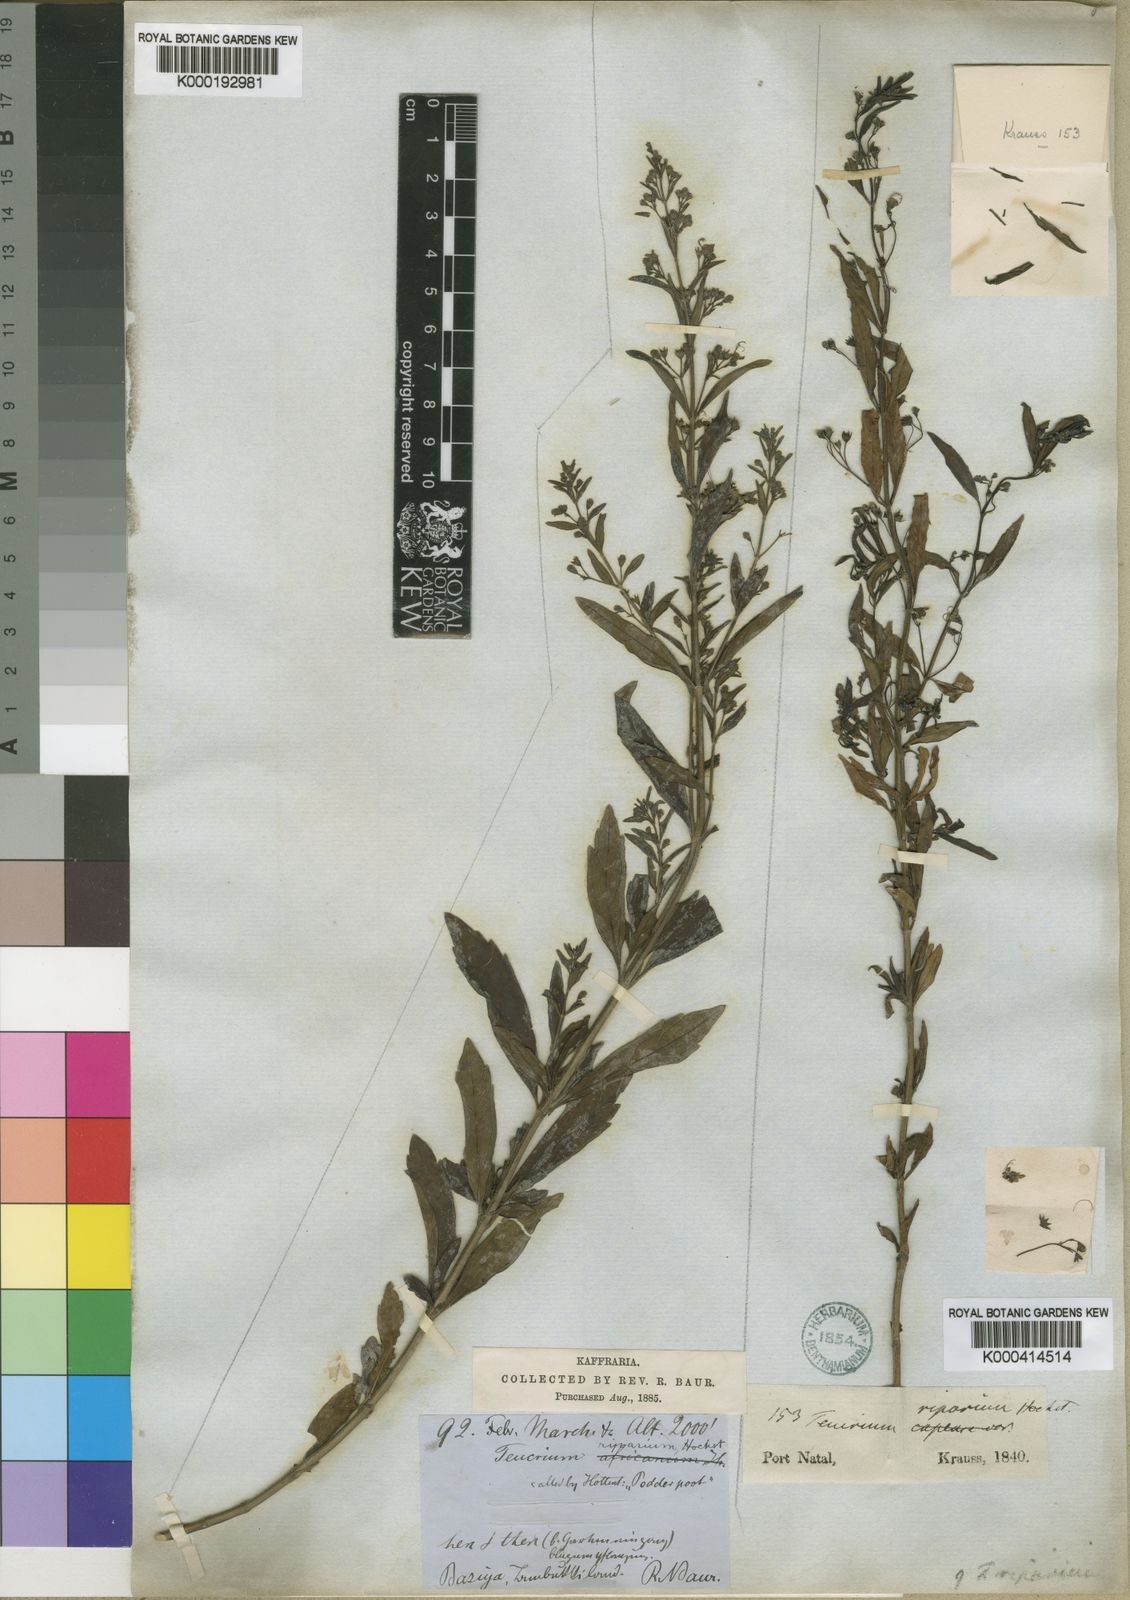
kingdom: Plantae
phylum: Tracheophyta
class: Magnoliopsida
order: Lamiales
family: Lamiaceae
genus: Teucrium
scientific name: Teucrium kraussii
